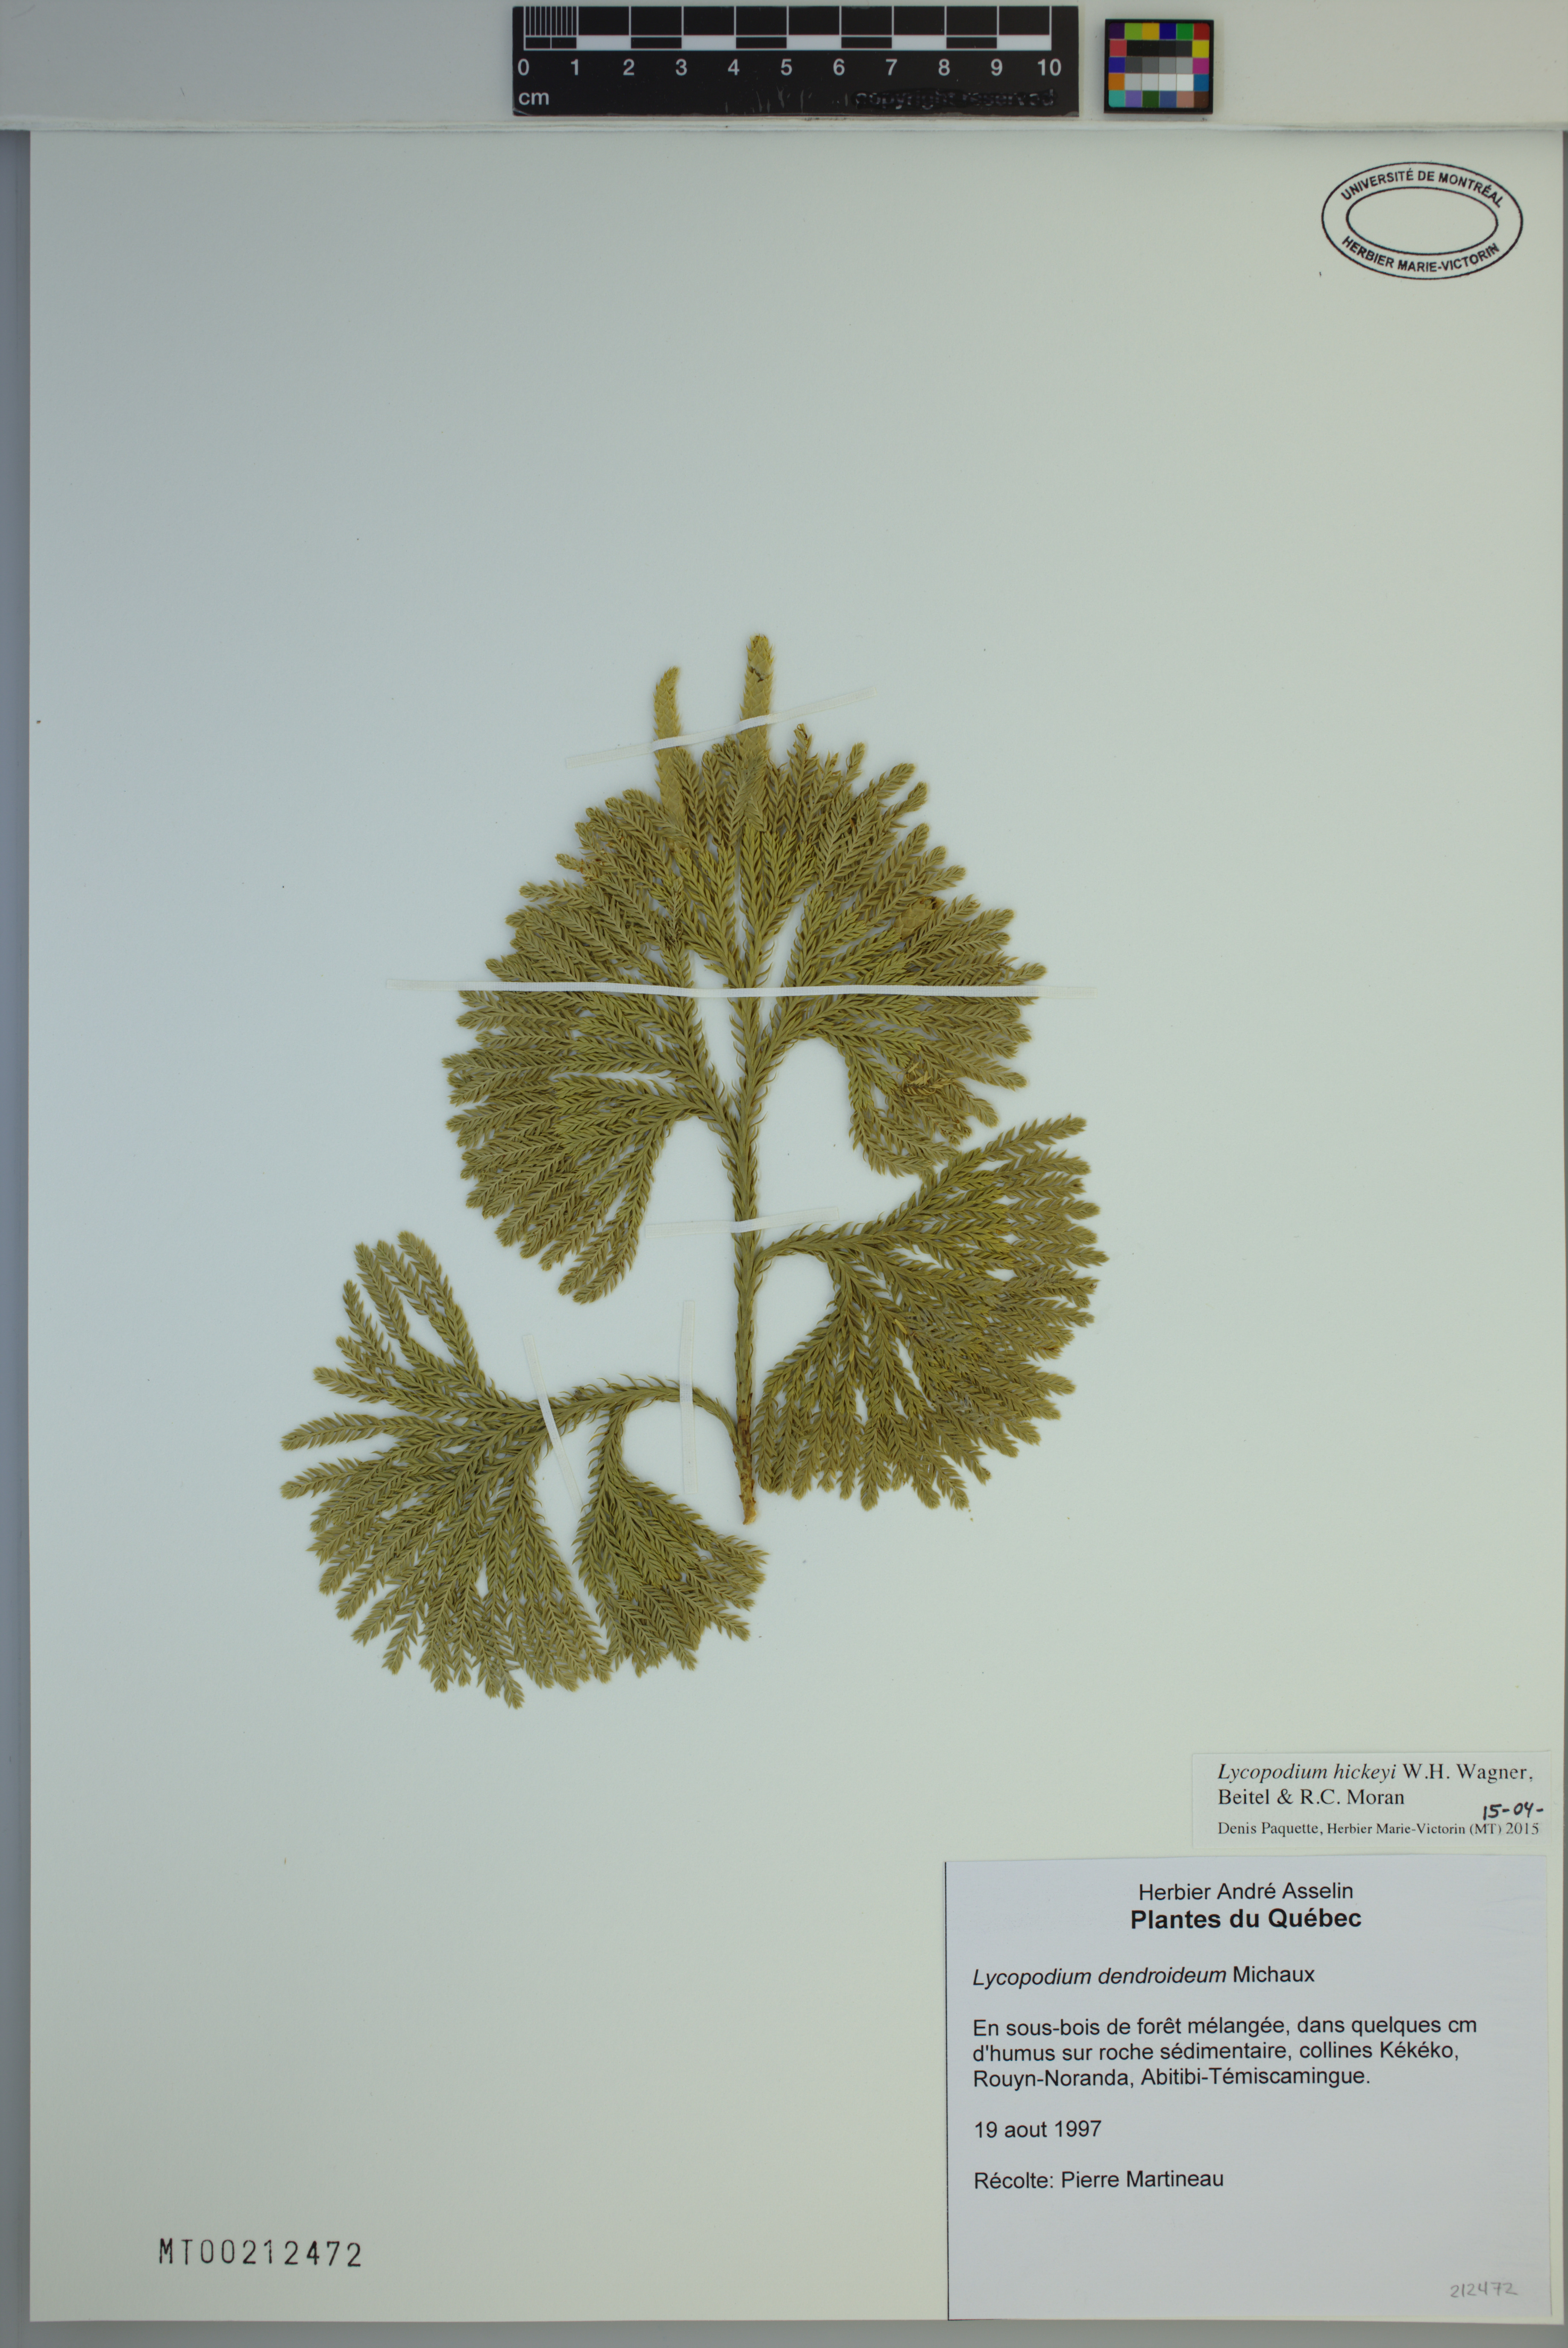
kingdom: Plantae
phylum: Tracheophyta
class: Lycopodiopsida
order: Lycopodiales
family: Lycopodiaceae
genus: Dendrolycopodium
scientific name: Dendrolycopodium hickeyi
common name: Hickey's clubmoss
